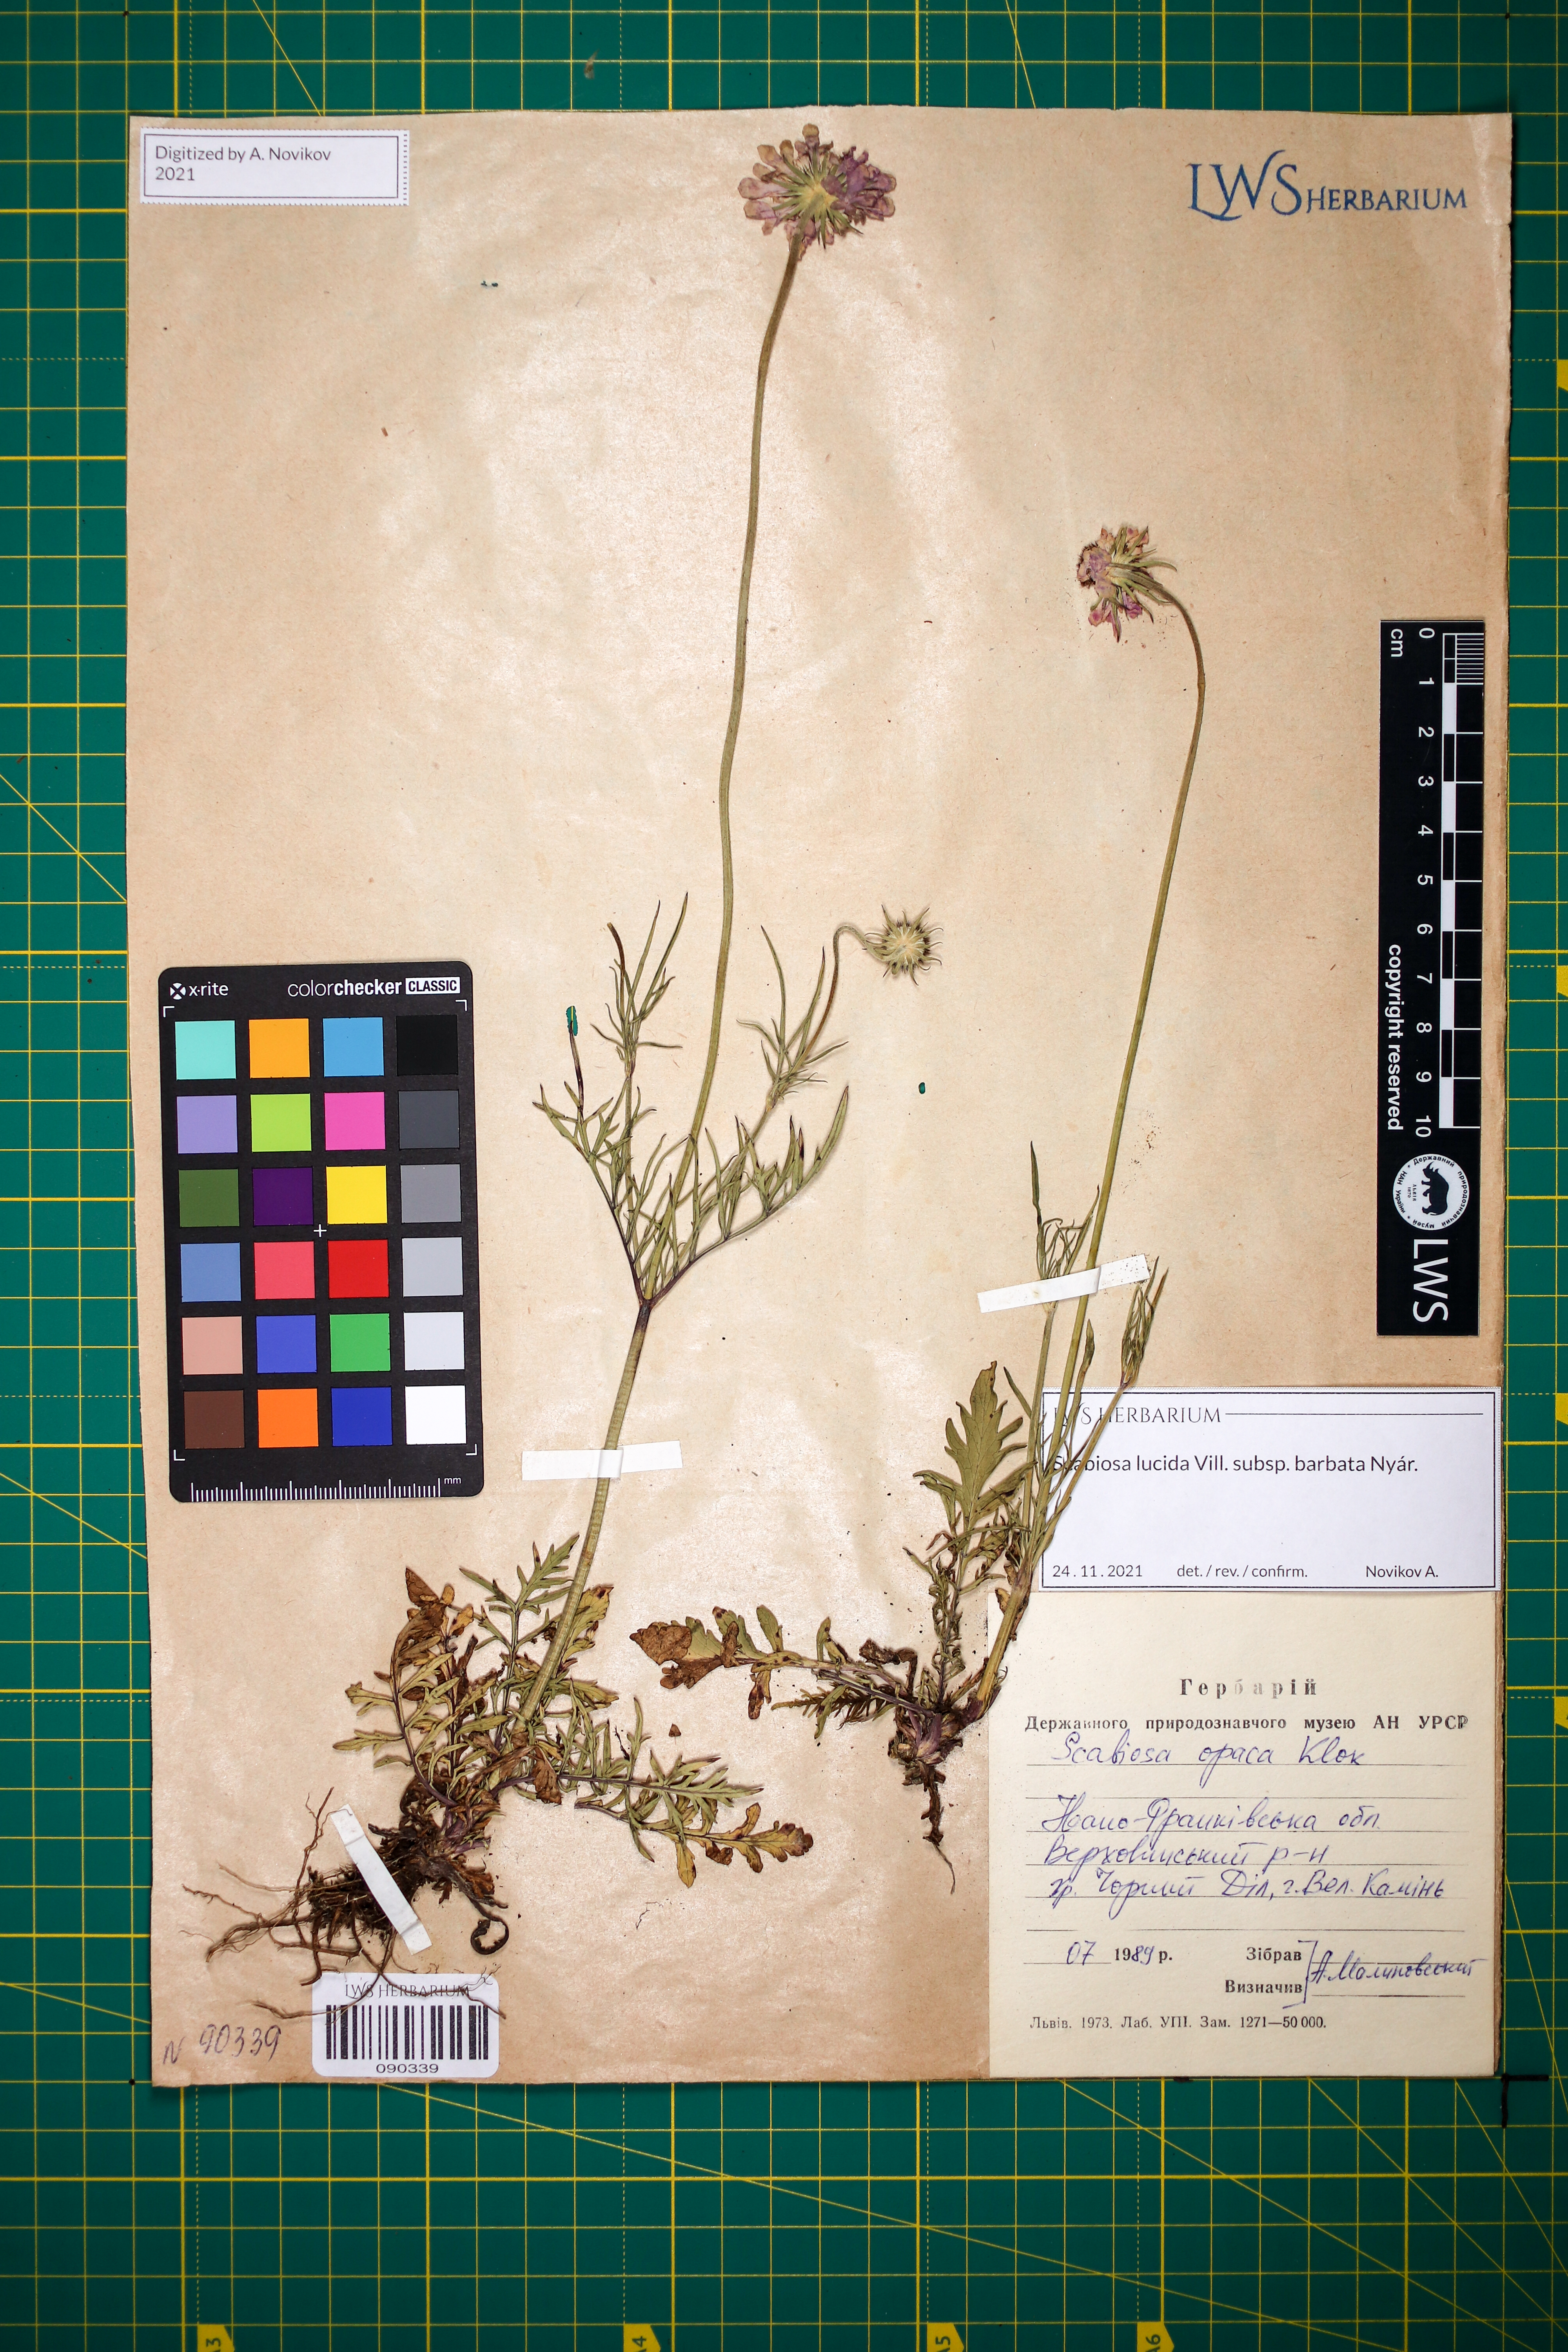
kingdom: Plantae
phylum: Tracheophyta
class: Magnoliopsida
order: Dipsacales
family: Caprifoliaceae
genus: Scabiosa
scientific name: Scabiosa lucida
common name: Shining scabious
